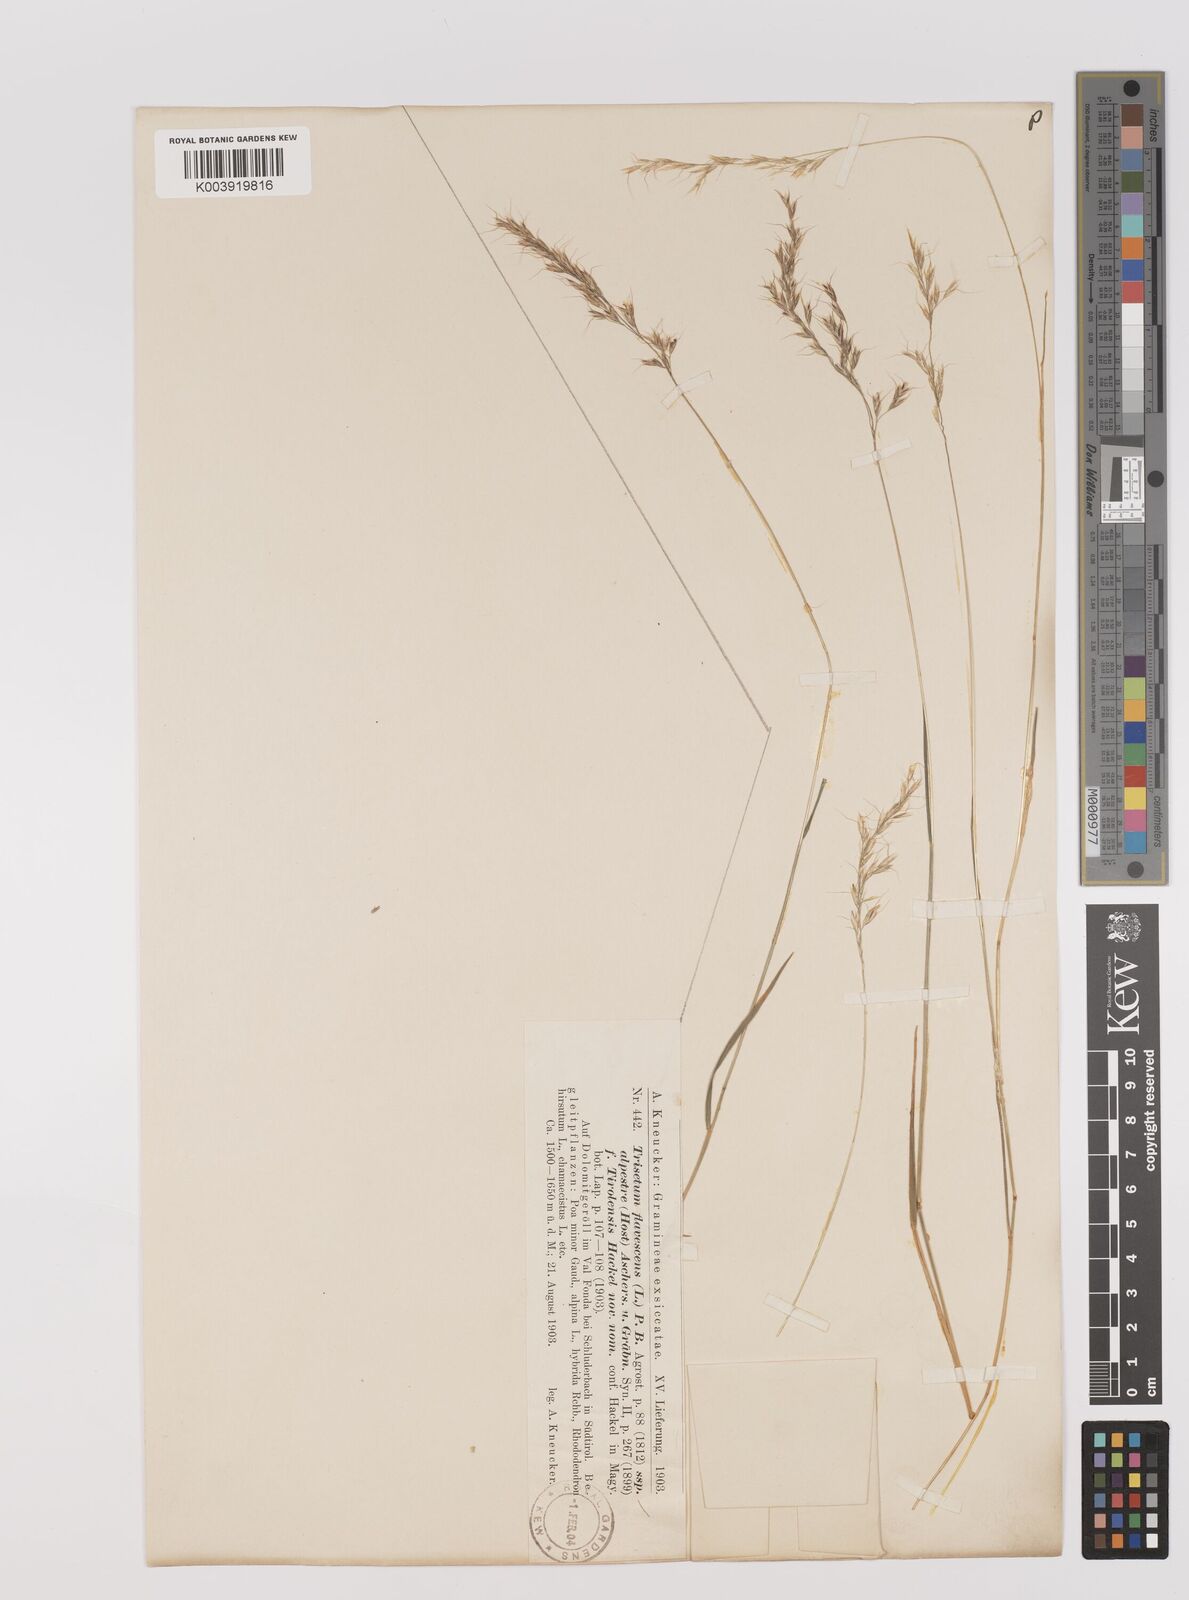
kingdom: Plantae
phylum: Tracheophyta
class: Liliopsida
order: Poales
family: Poaceae
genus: Trisetum
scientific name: Trisetum flavescens
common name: Yellow oat-grass
